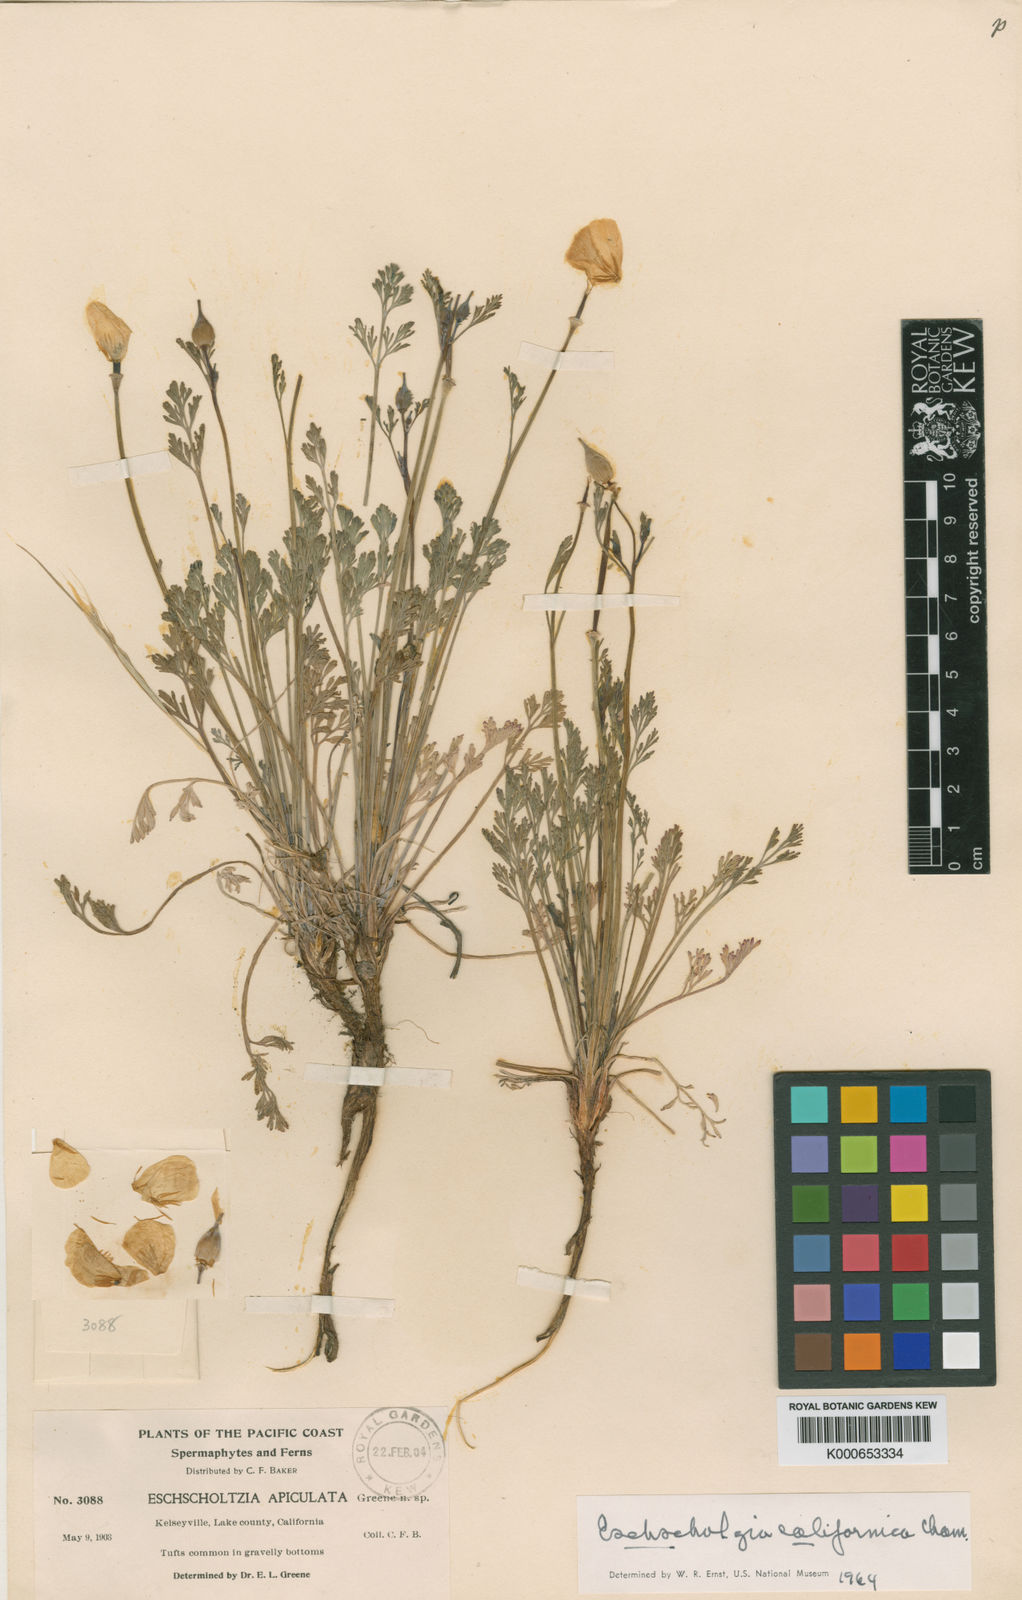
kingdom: Plantae
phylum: Tracheophyta
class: Magnoliopsida
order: Ranunculales
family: Papaveraceae
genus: Eschscholzia
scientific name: Eschscholzia californica
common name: California poppy
